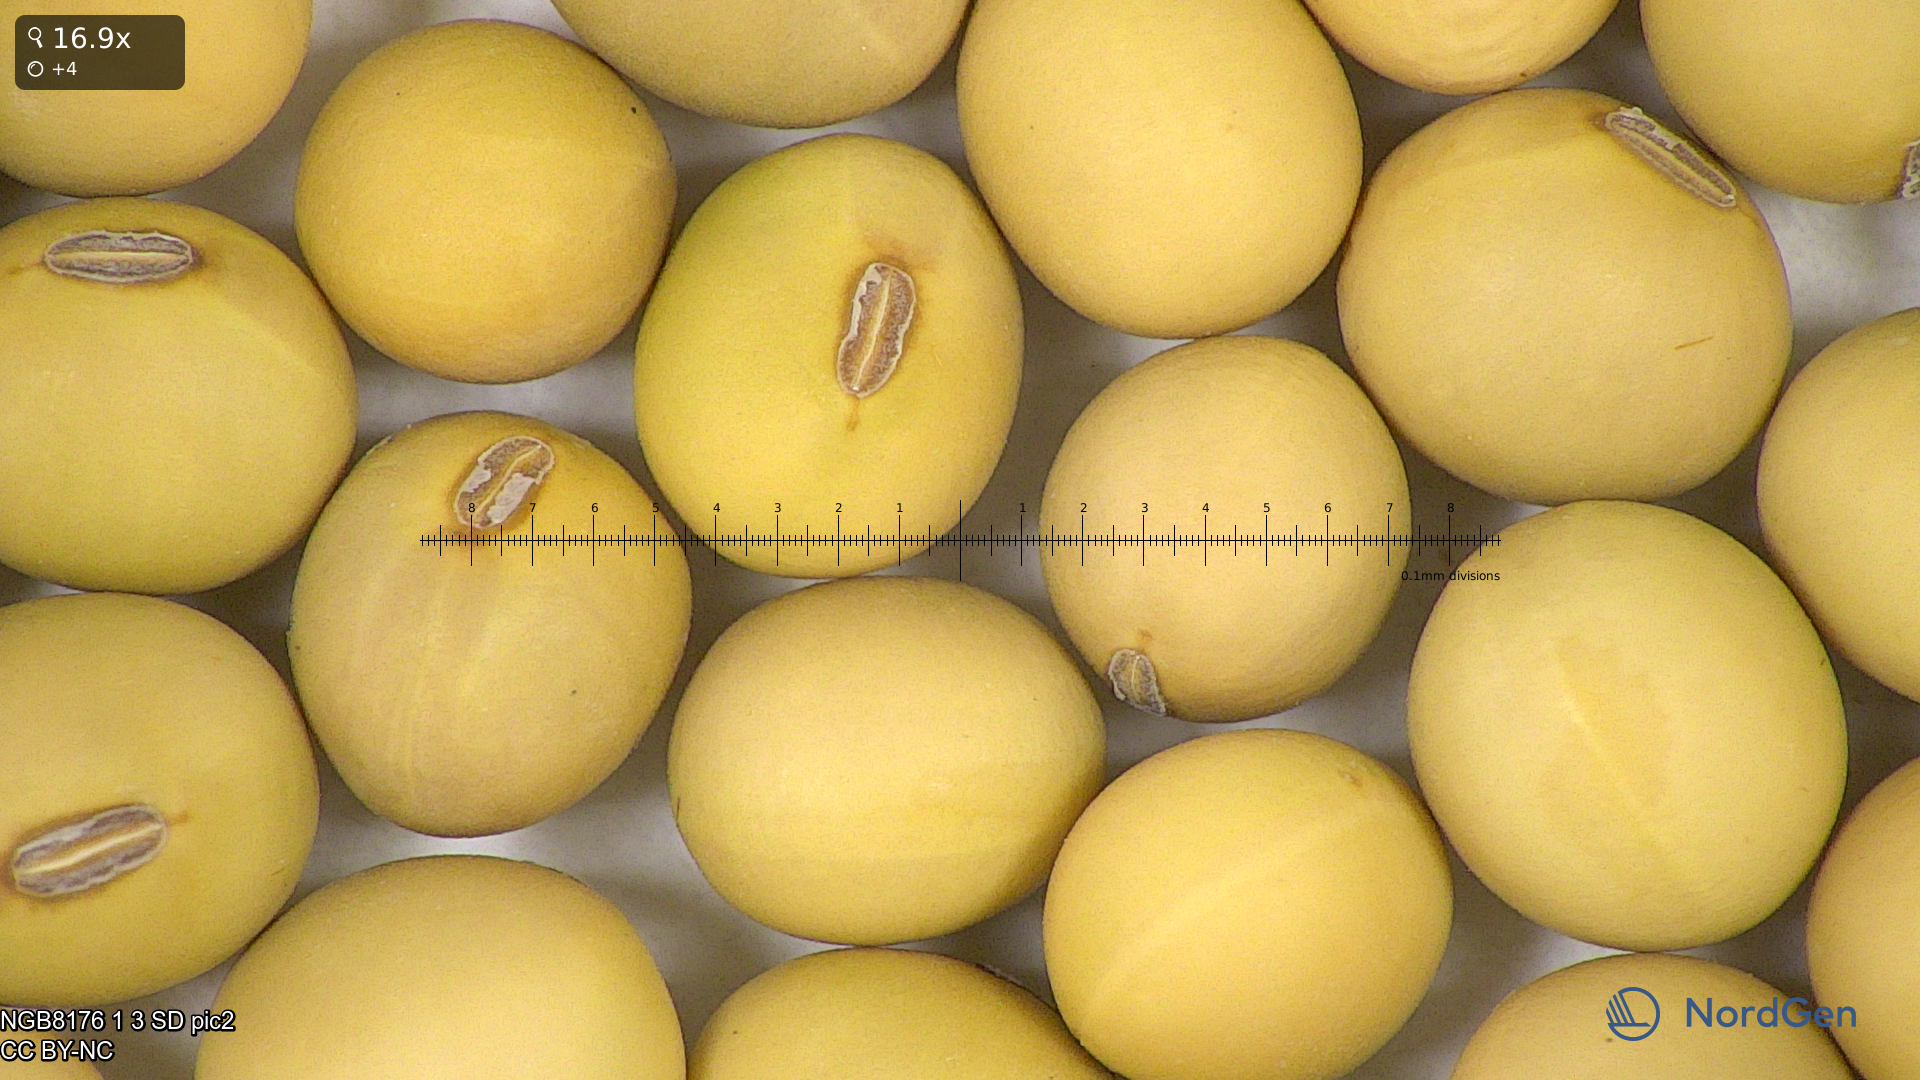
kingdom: Plantae
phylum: Tracheophyta
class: Magnoliopsida
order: Fabales
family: Fabaceae
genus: Glycine
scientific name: Glycine max
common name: Soya-bean
